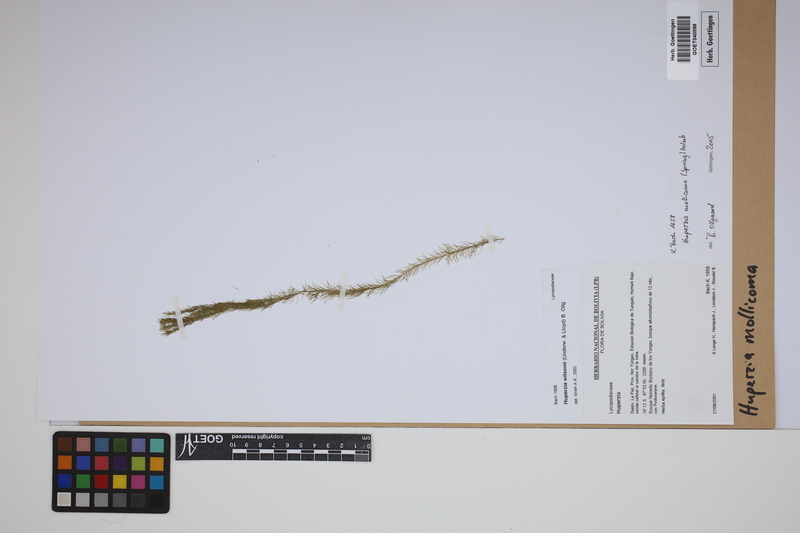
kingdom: Plantae
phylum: Tracheophyta
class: Lycopodiopsida
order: Lycopodiales
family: Lycopodiaceae
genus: Phlegmariurus
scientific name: Phlegmariurus mollicomus
